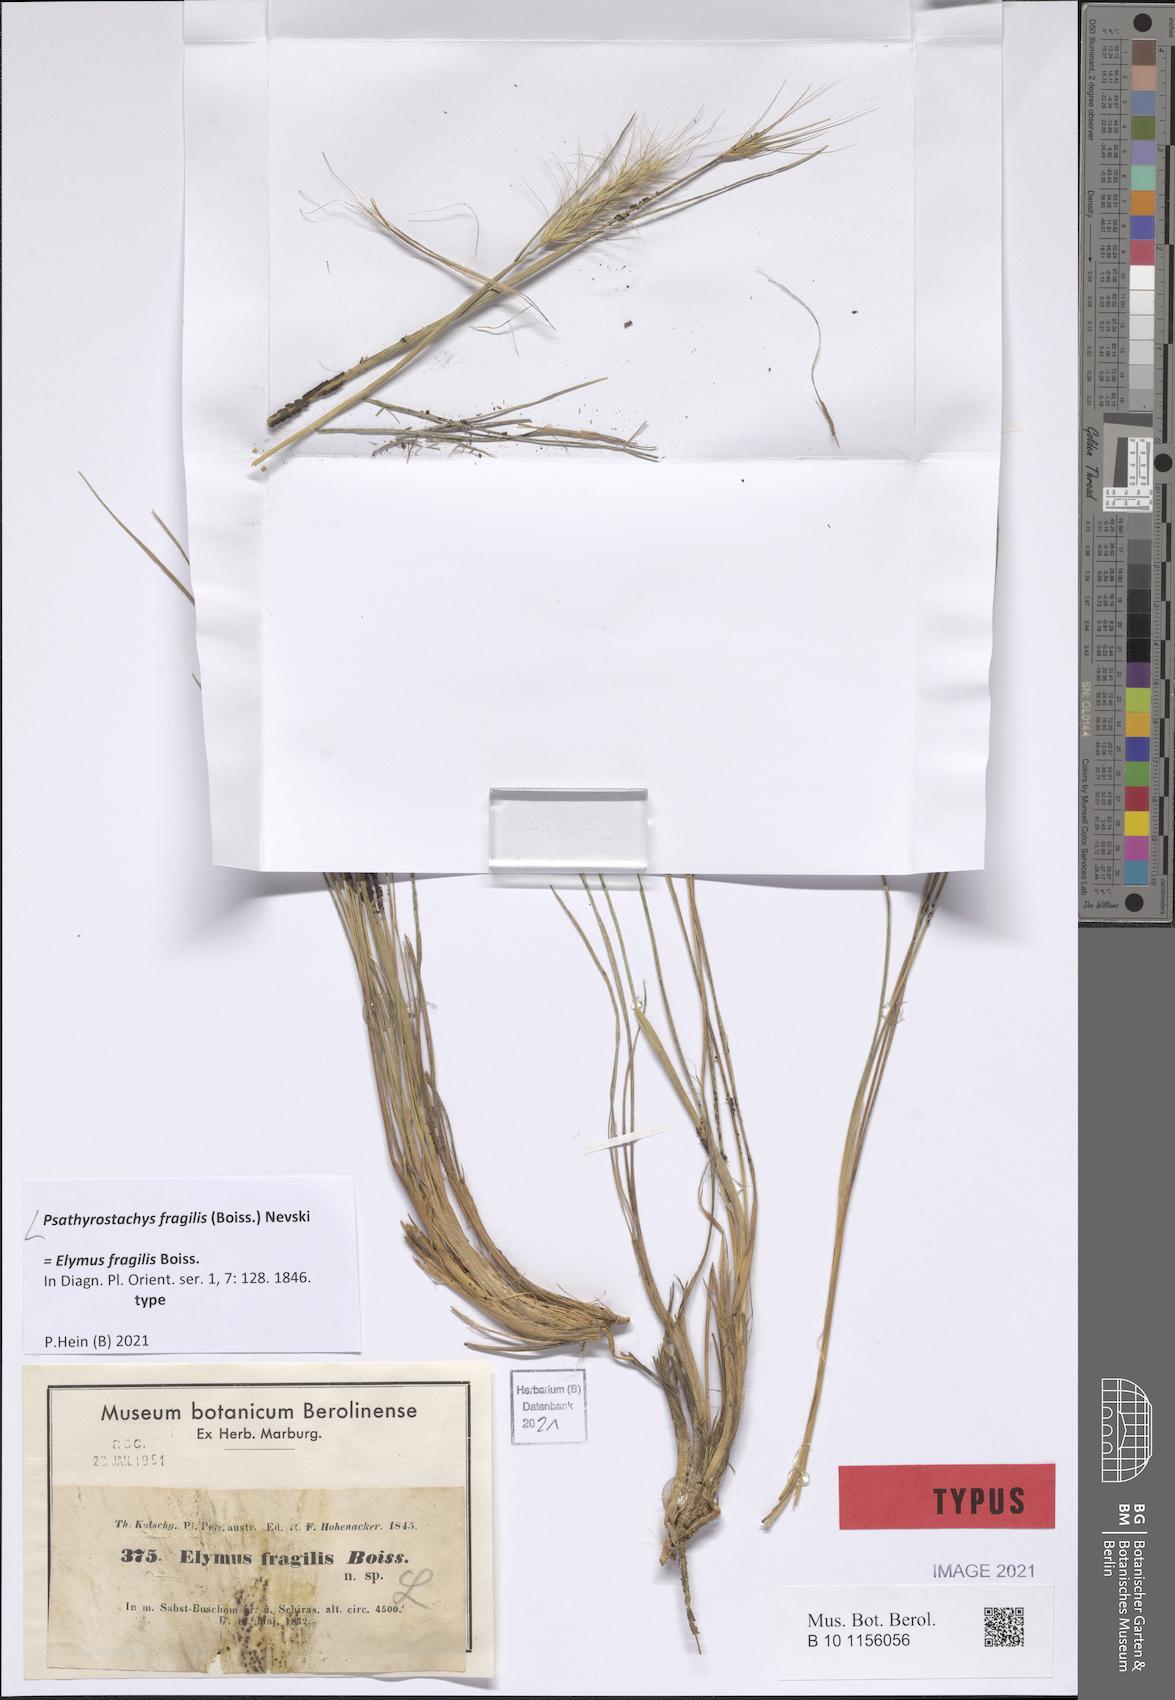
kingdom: Plantae
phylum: Tracheophyta
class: Liliopsida
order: Poales
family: Poaceae
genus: Psathyrostachys
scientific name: Psathyrostachys fragilis
